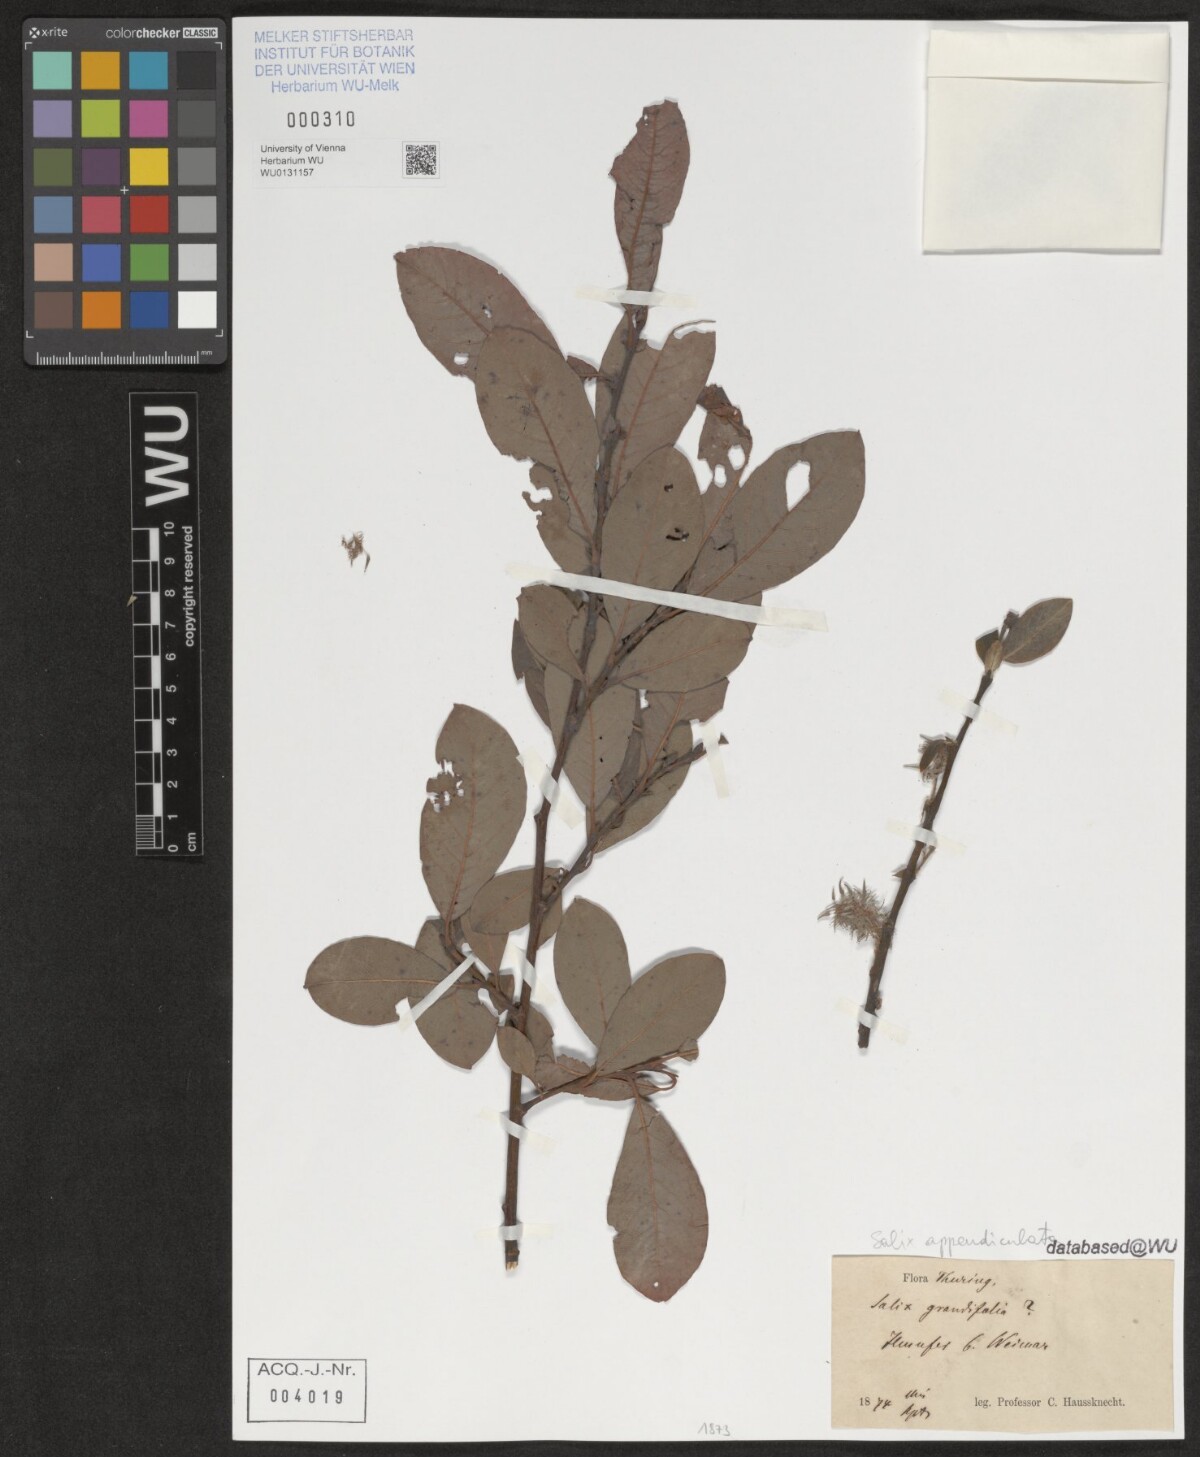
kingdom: Plantae
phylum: Tracheophyta
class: Magnoliopsida
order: Malpighiales
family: Salicaceae
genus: Salix
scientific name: Salix appendiculata
